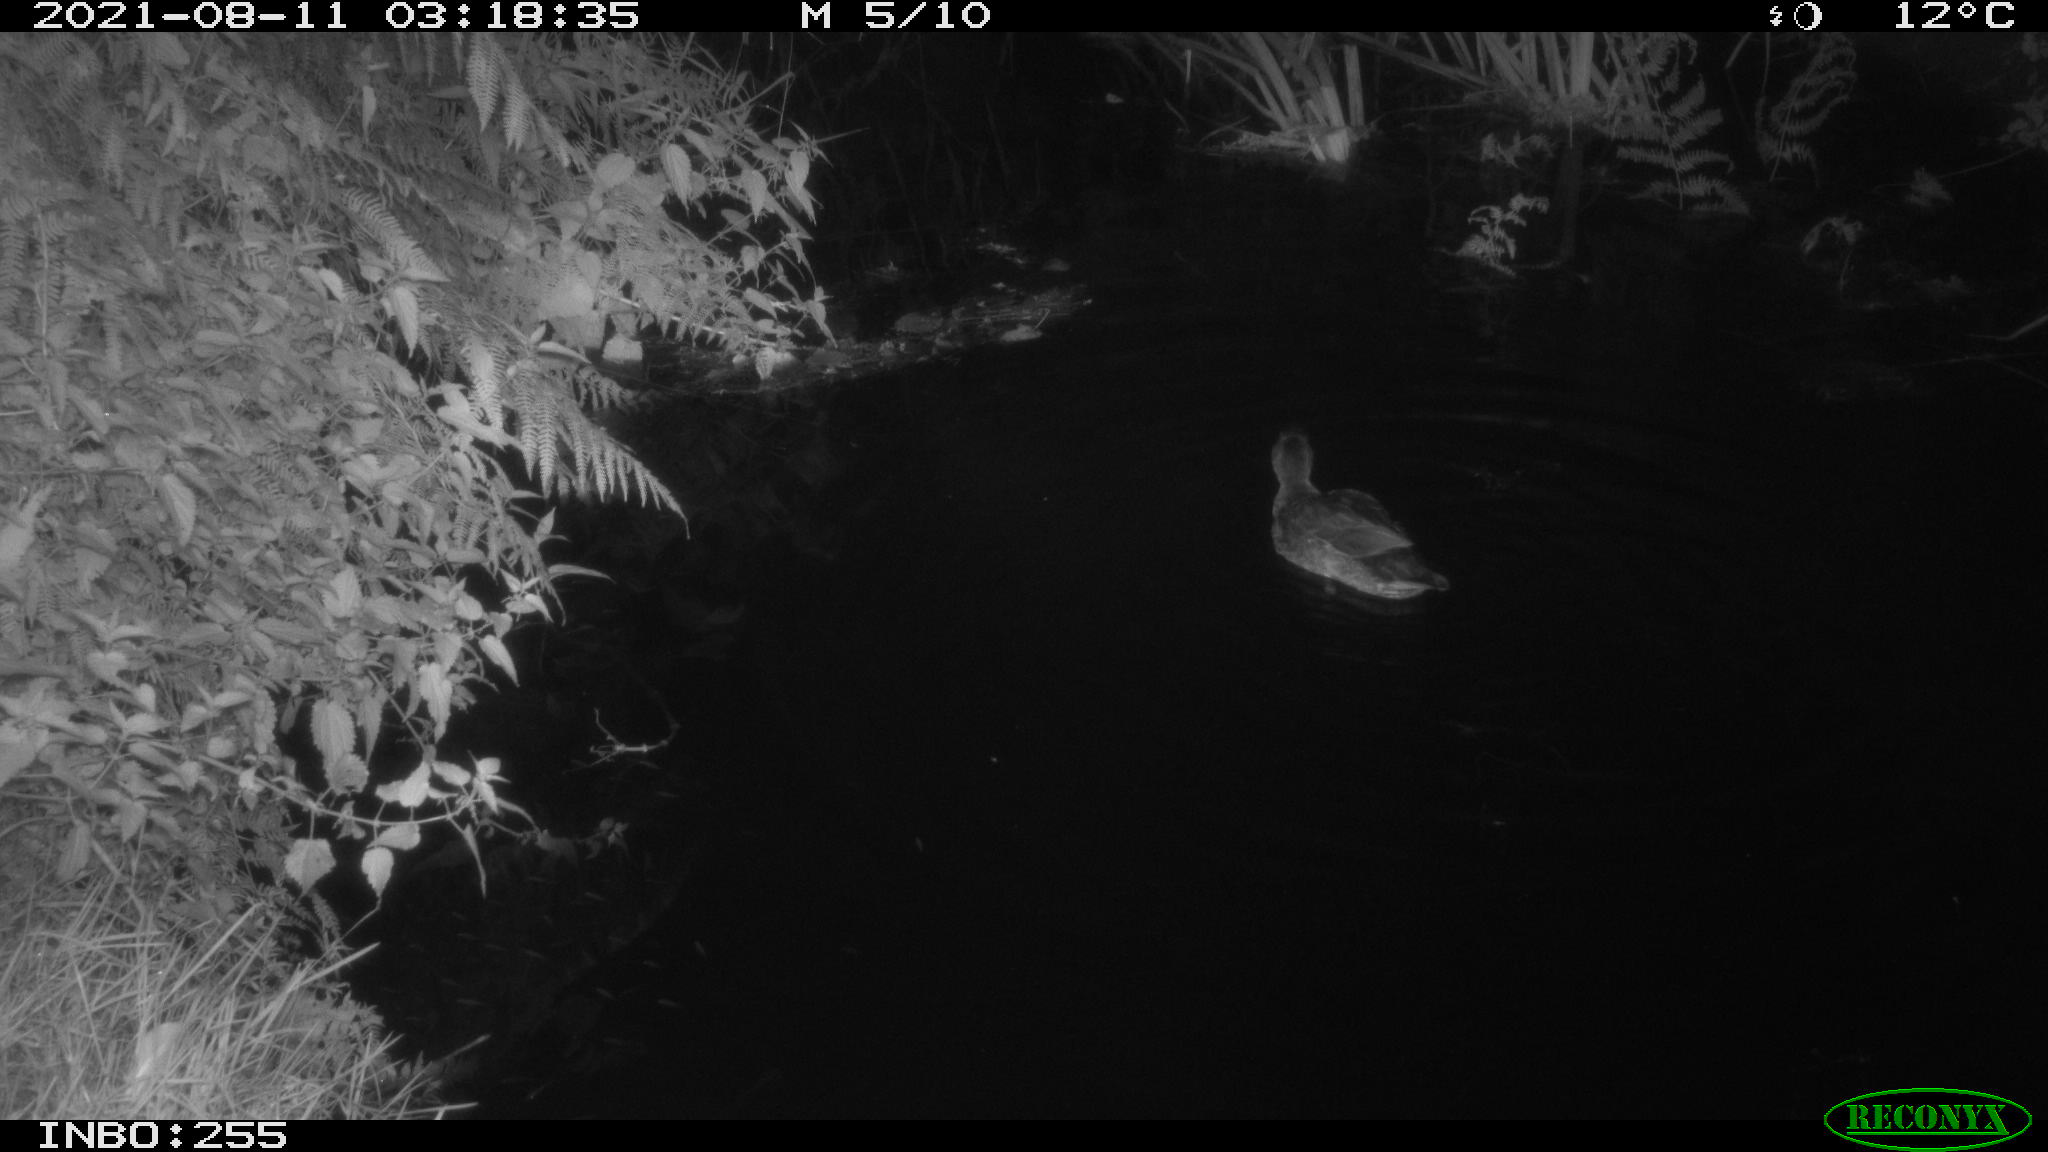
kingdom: Animalia
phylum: Chordata
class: Aves
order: Anseriformes
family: Anatidae
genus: Anas
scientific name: Anas platyrhynchos
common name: Mallard
